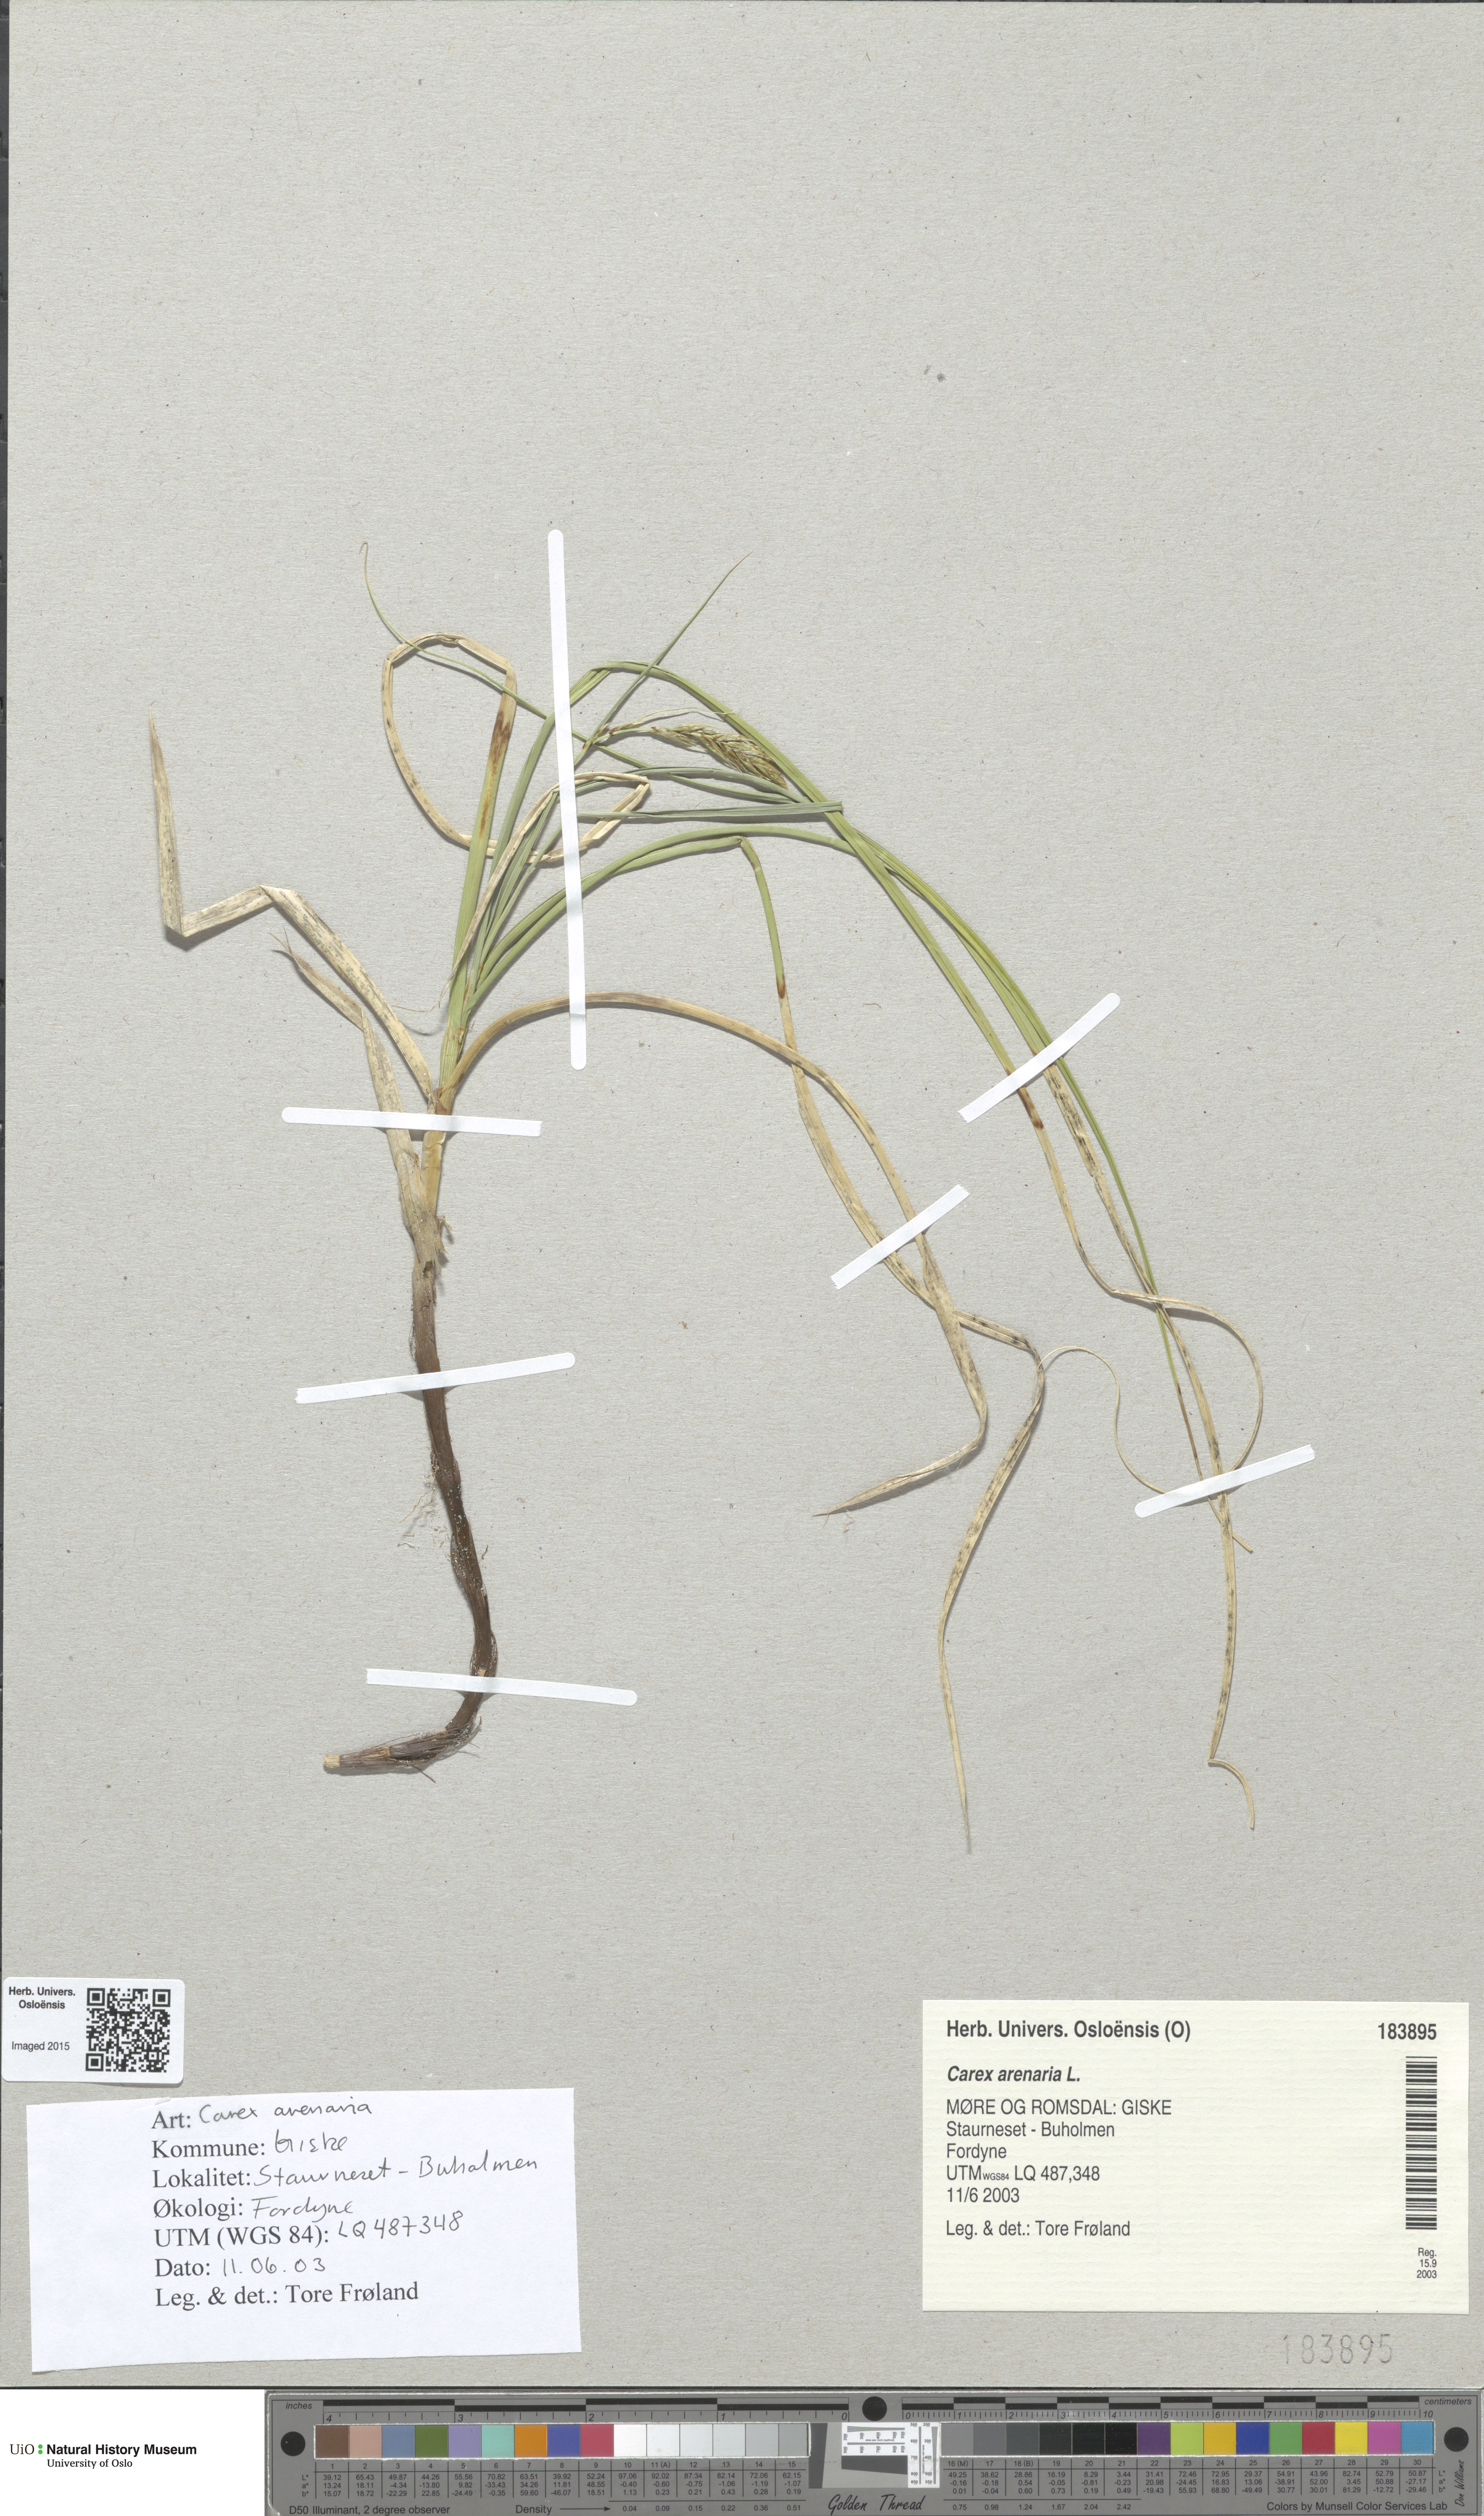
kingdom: Plantae
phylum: Tracheophyta
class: Liliopsida
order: Poales
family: Cyperaceae
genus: Carex
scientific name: Carex arenaria
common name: Sand sedge
